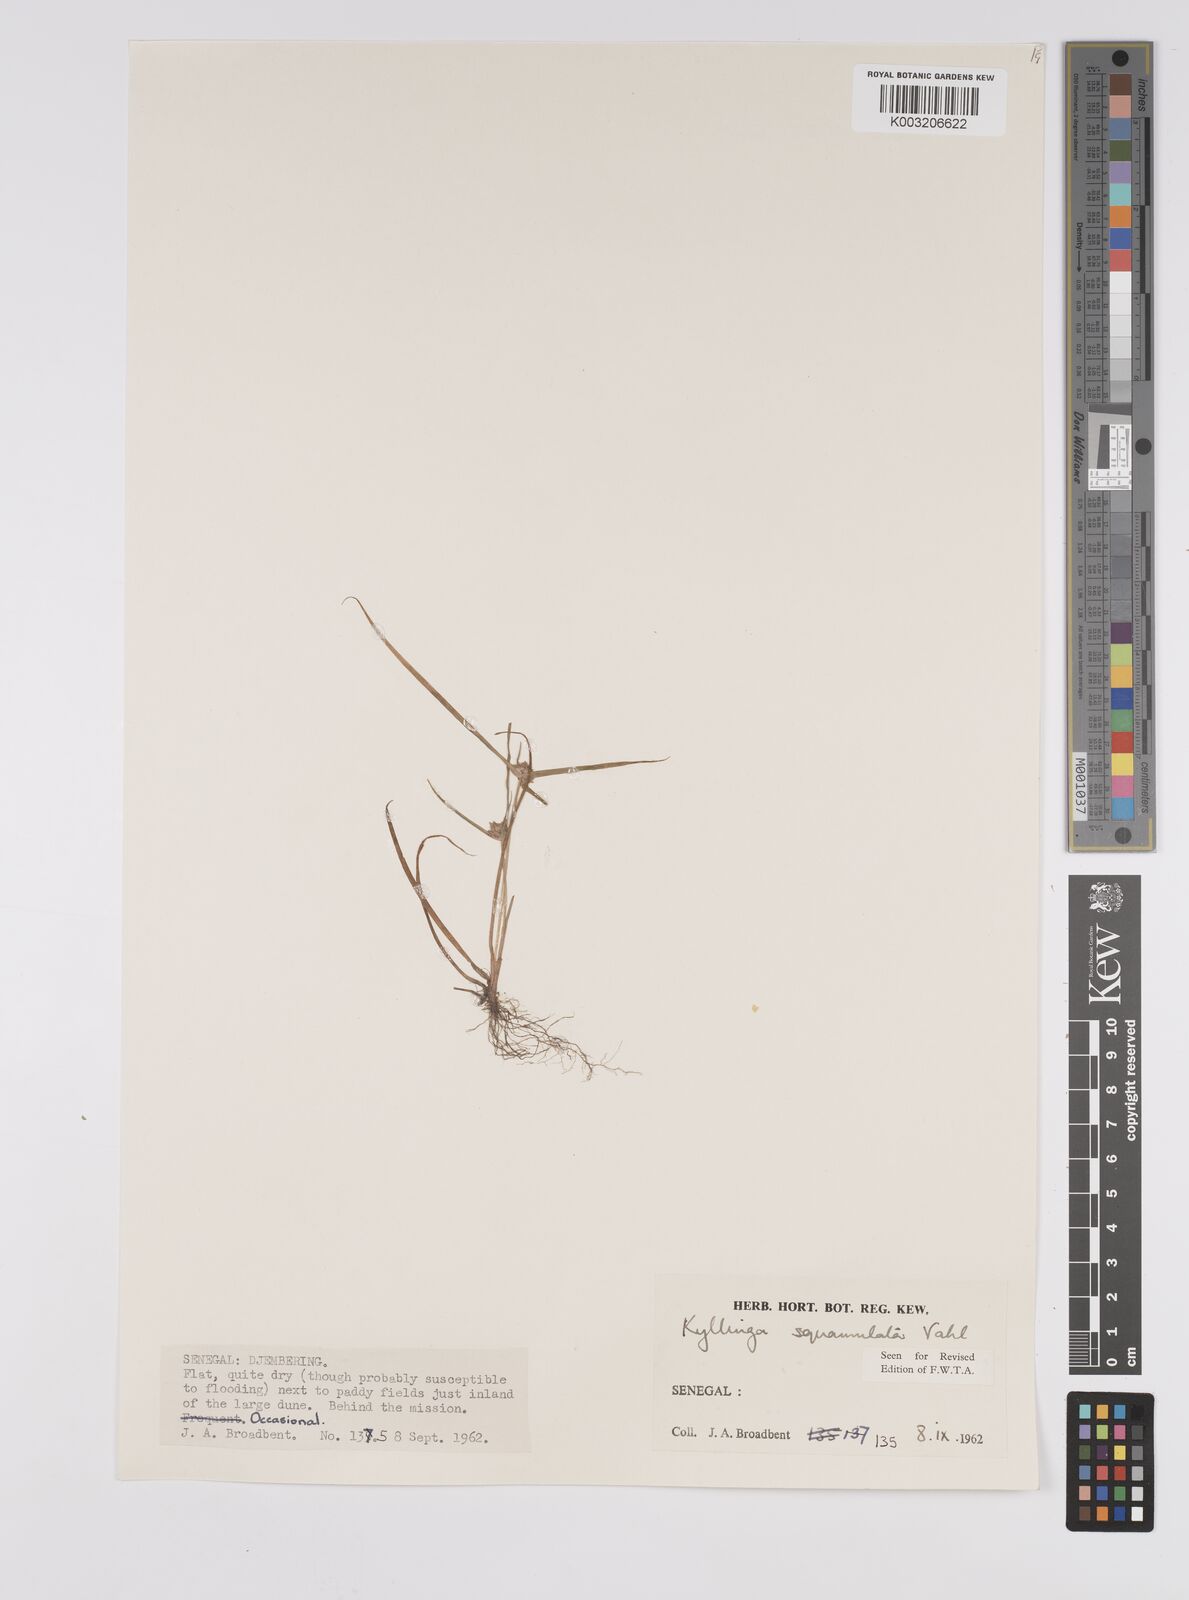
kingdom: Plantae
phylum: Tracheophyta
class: Liliopsida
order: Poales
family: Cyperaceae
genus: Cyperus
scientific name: Cyperus distans
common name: Slender cyperus
